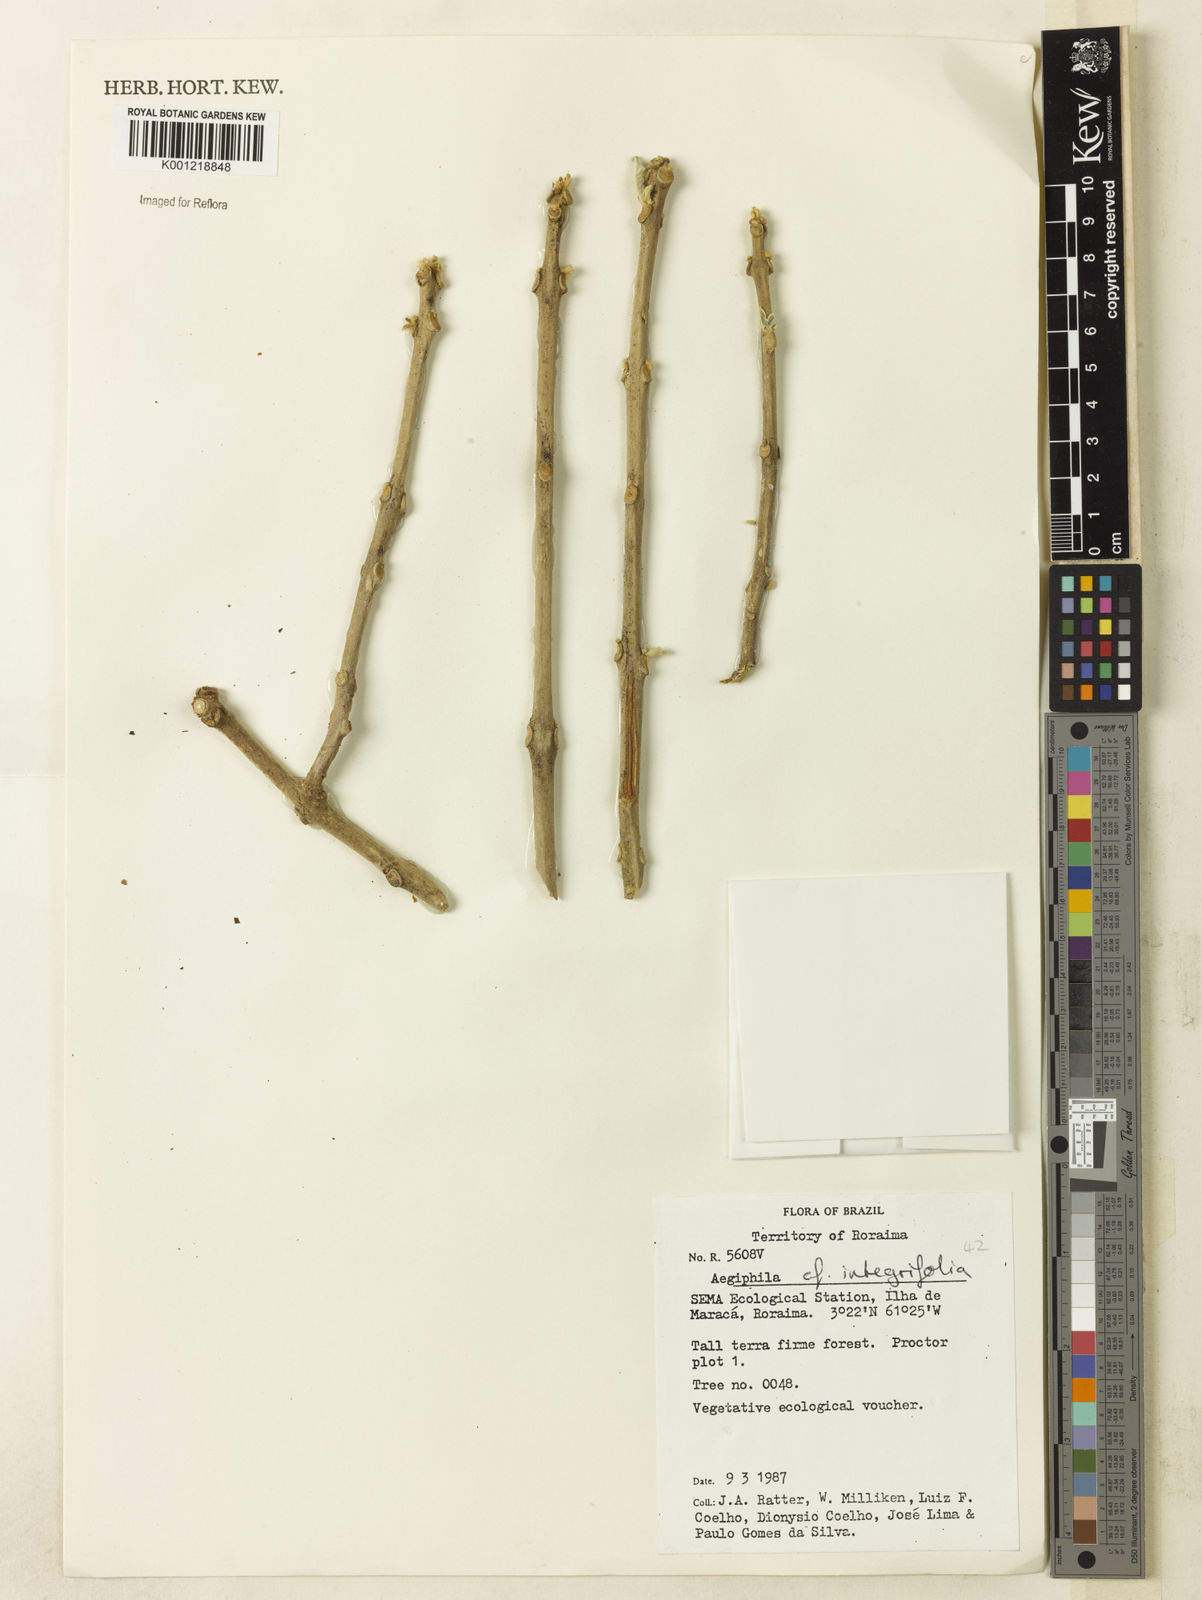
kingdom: Plantae
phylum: Tracheophyta
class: Magnoliopsida
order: Lamiales
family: Lamiaceae
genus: Aegiphila
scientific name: Aegiphila
